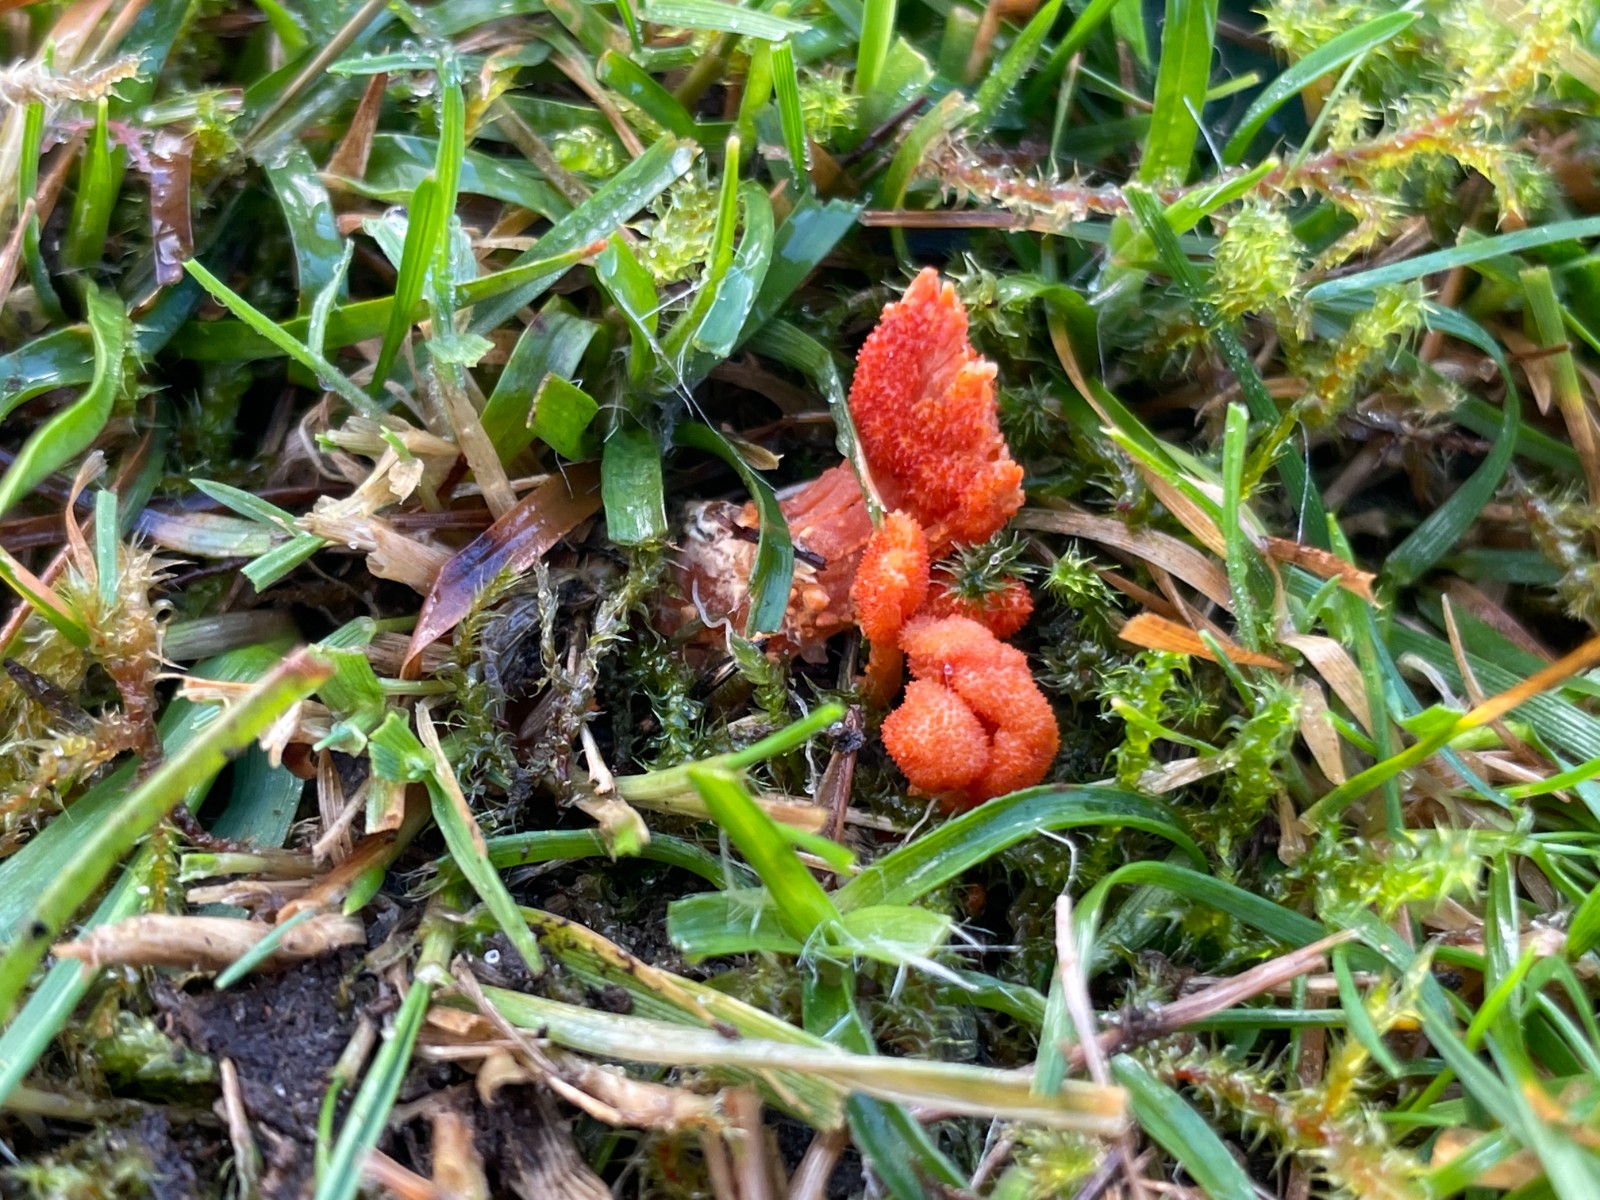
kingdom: Fungi
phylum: Ascomycota
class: Sordariomycetes
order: Hypocreales
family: Cordycipitaceae
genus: Cordyceps
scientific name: Cordyceps militaris
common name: puppe-snyltekølle
